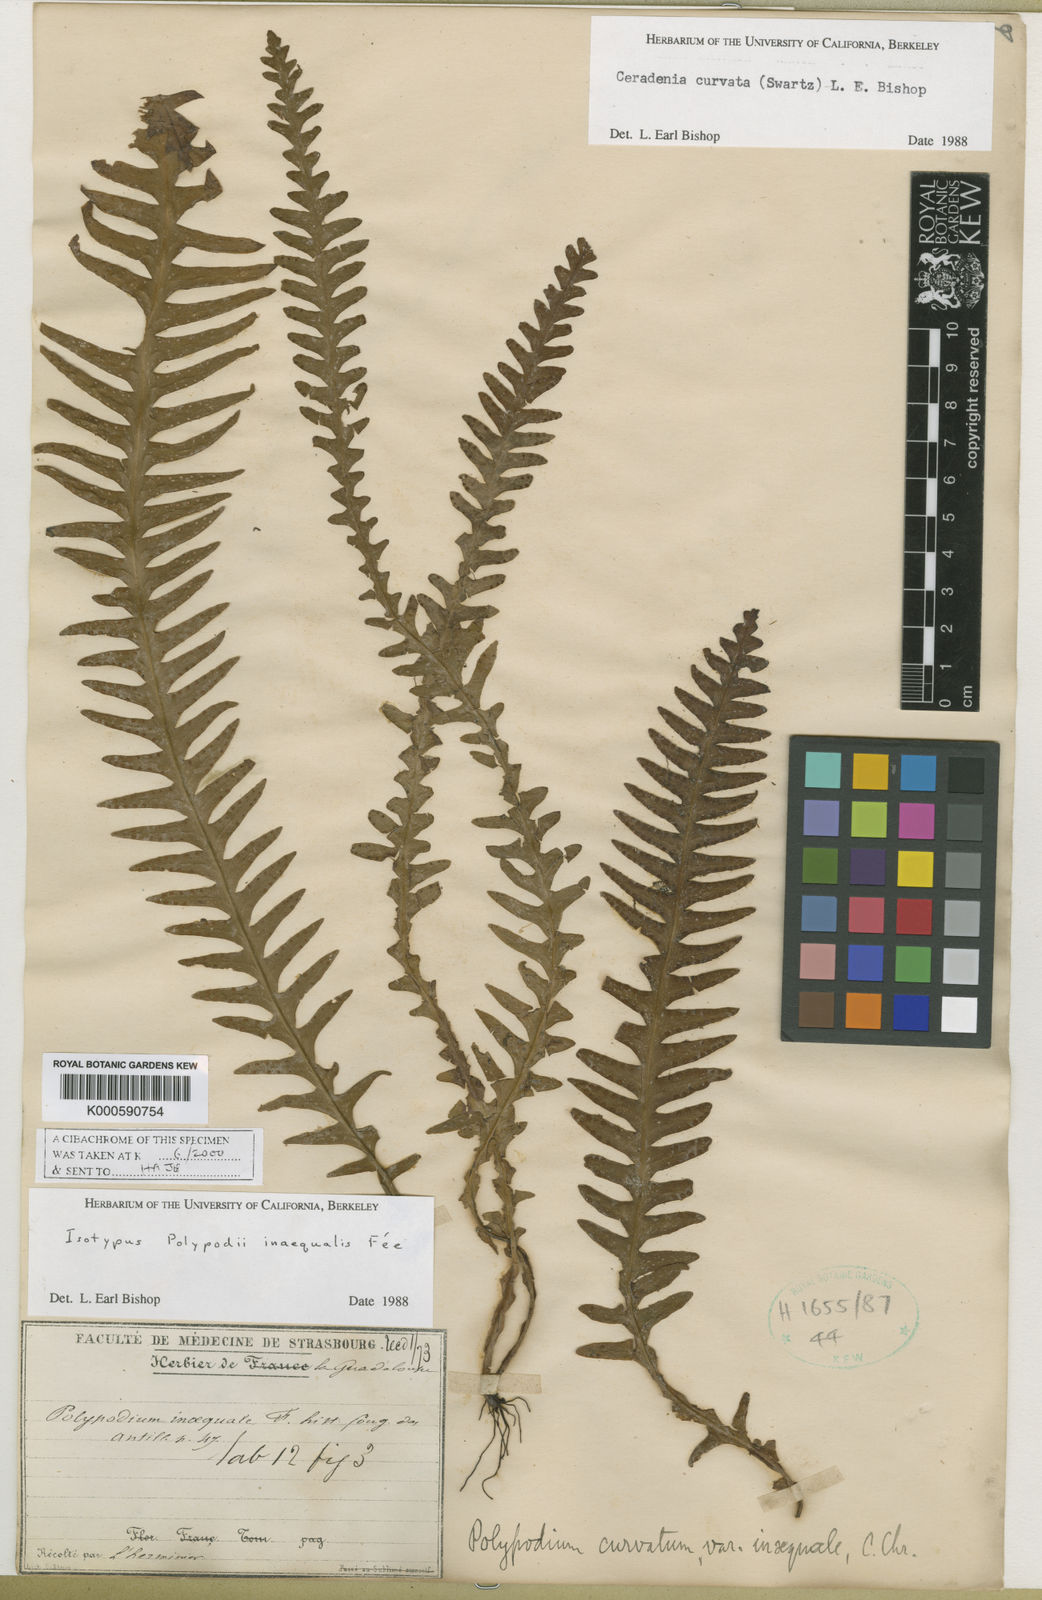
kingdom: Plantae
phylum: Tracheophyta
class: Polypodiopsida
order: Polypodiales
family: Polypodiaceae
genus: Ceradenia
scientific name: Ceradenia curvata
